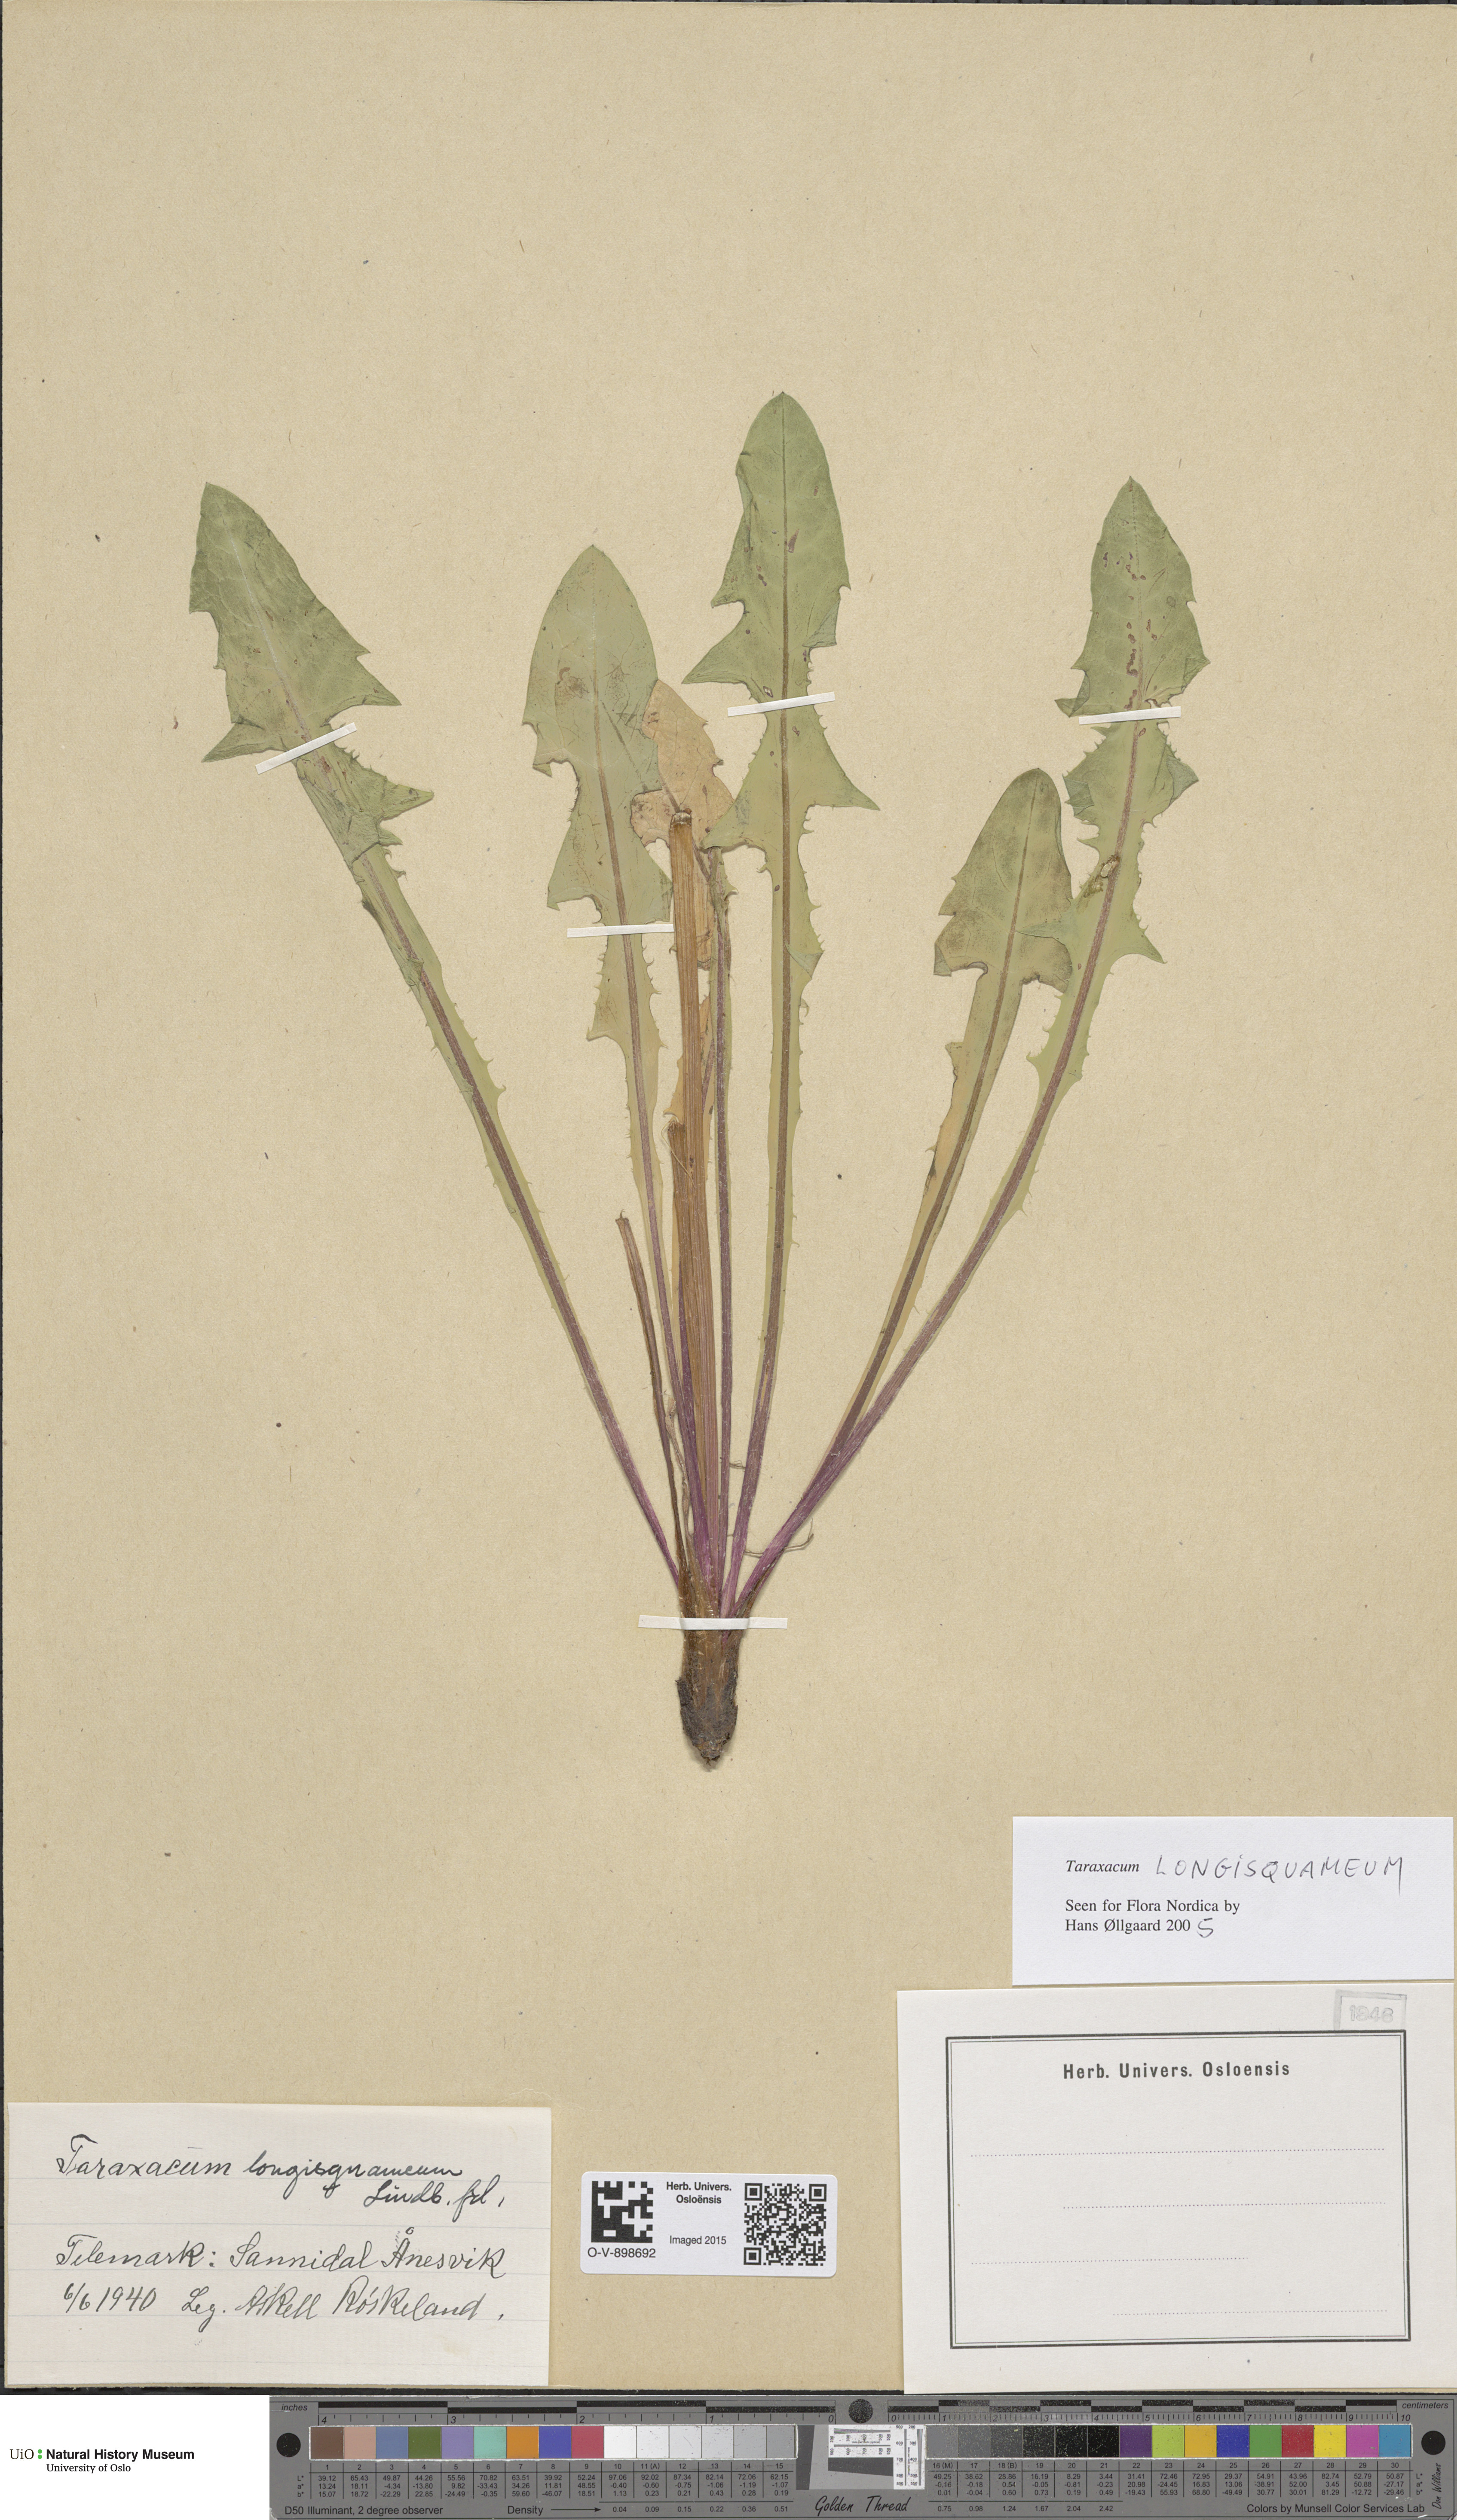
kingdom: Plantae
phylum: Tracheophyta
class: Magnoliopsida
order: Asterales
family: Asteraceae
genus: Taraxacum
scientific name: Taraxacum angustisquameum
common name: Multilobed dandelion
